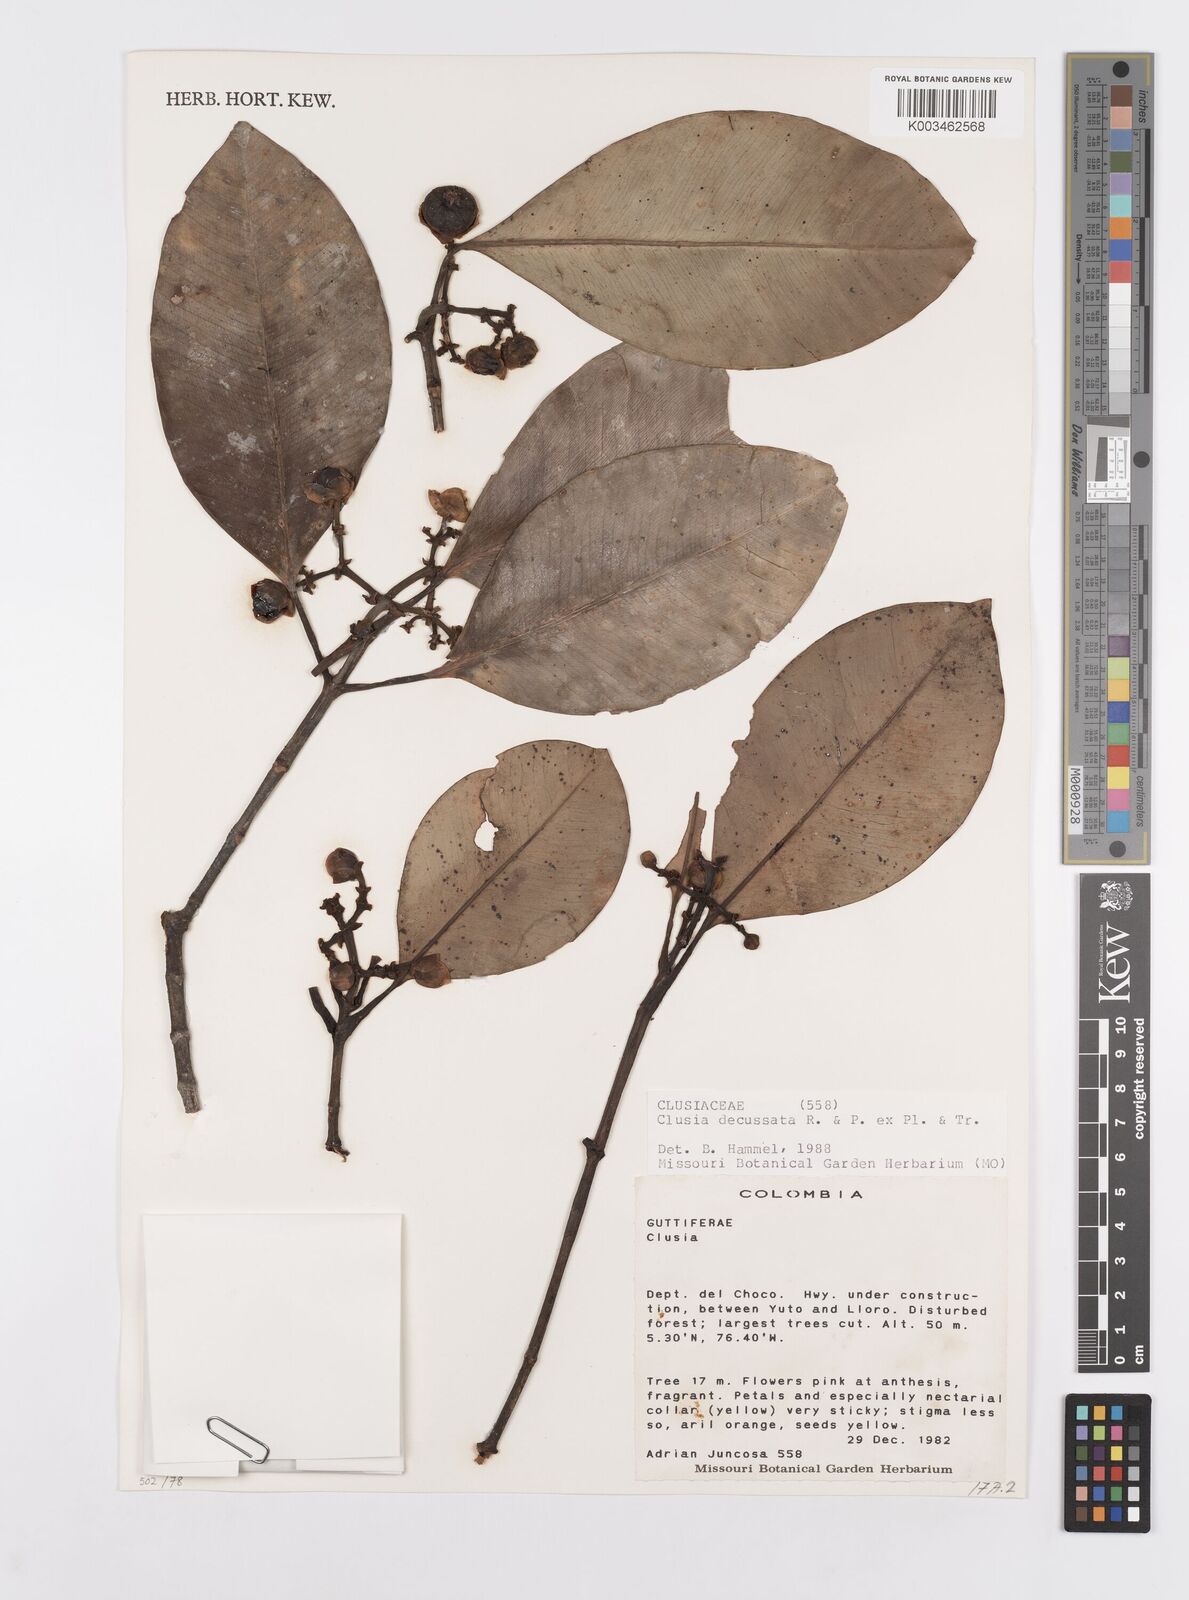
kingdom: Plantae
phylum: Tracheophyta
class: Magnoliopsida
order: Malpighiales
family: Clusiaceae
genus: Clusia
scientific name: Clusia decussata
